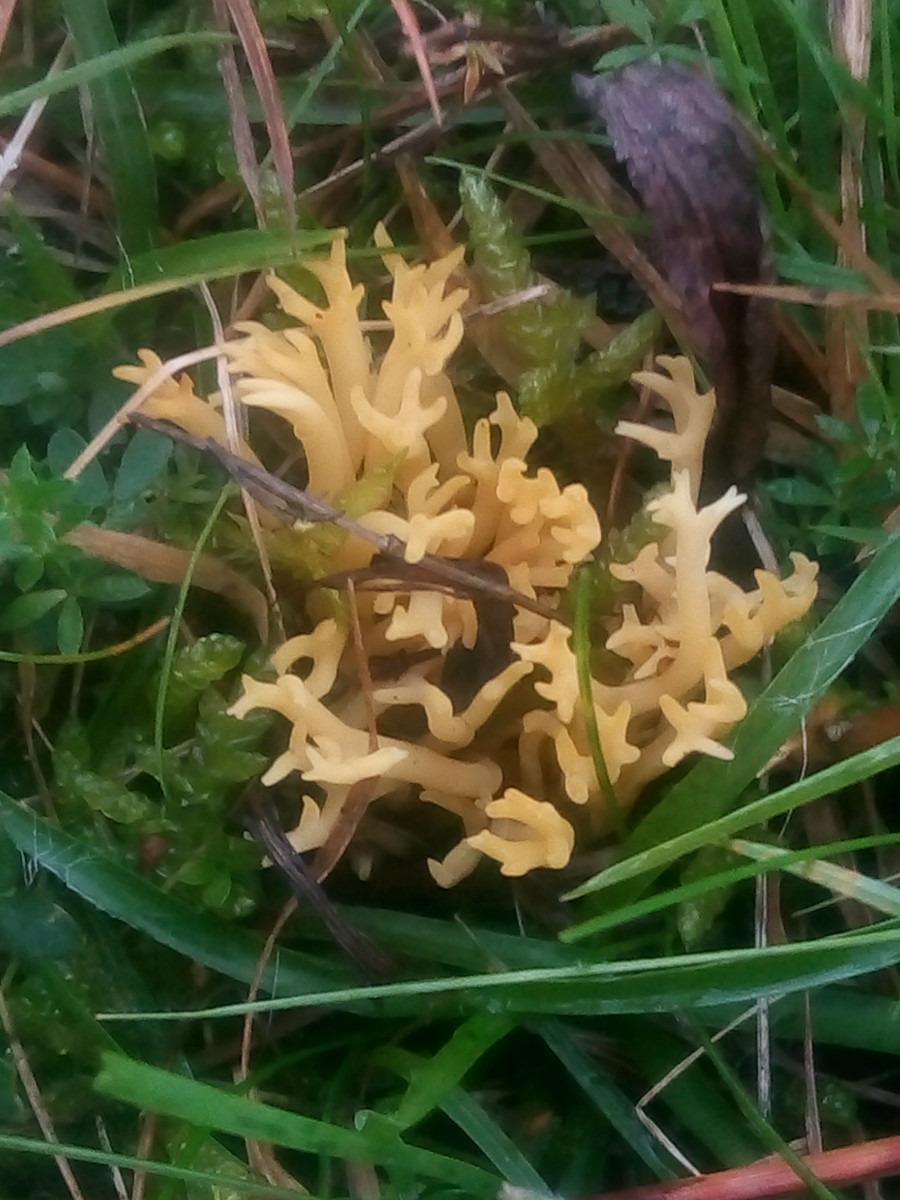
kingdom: Fungi
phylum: Basidiomycota
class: Agaricomycetes
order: Agaricales
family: Clavariaceae
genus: Clavulinopsis
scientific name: Clavulinopsis corniculata
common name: eng-køllesvamp
